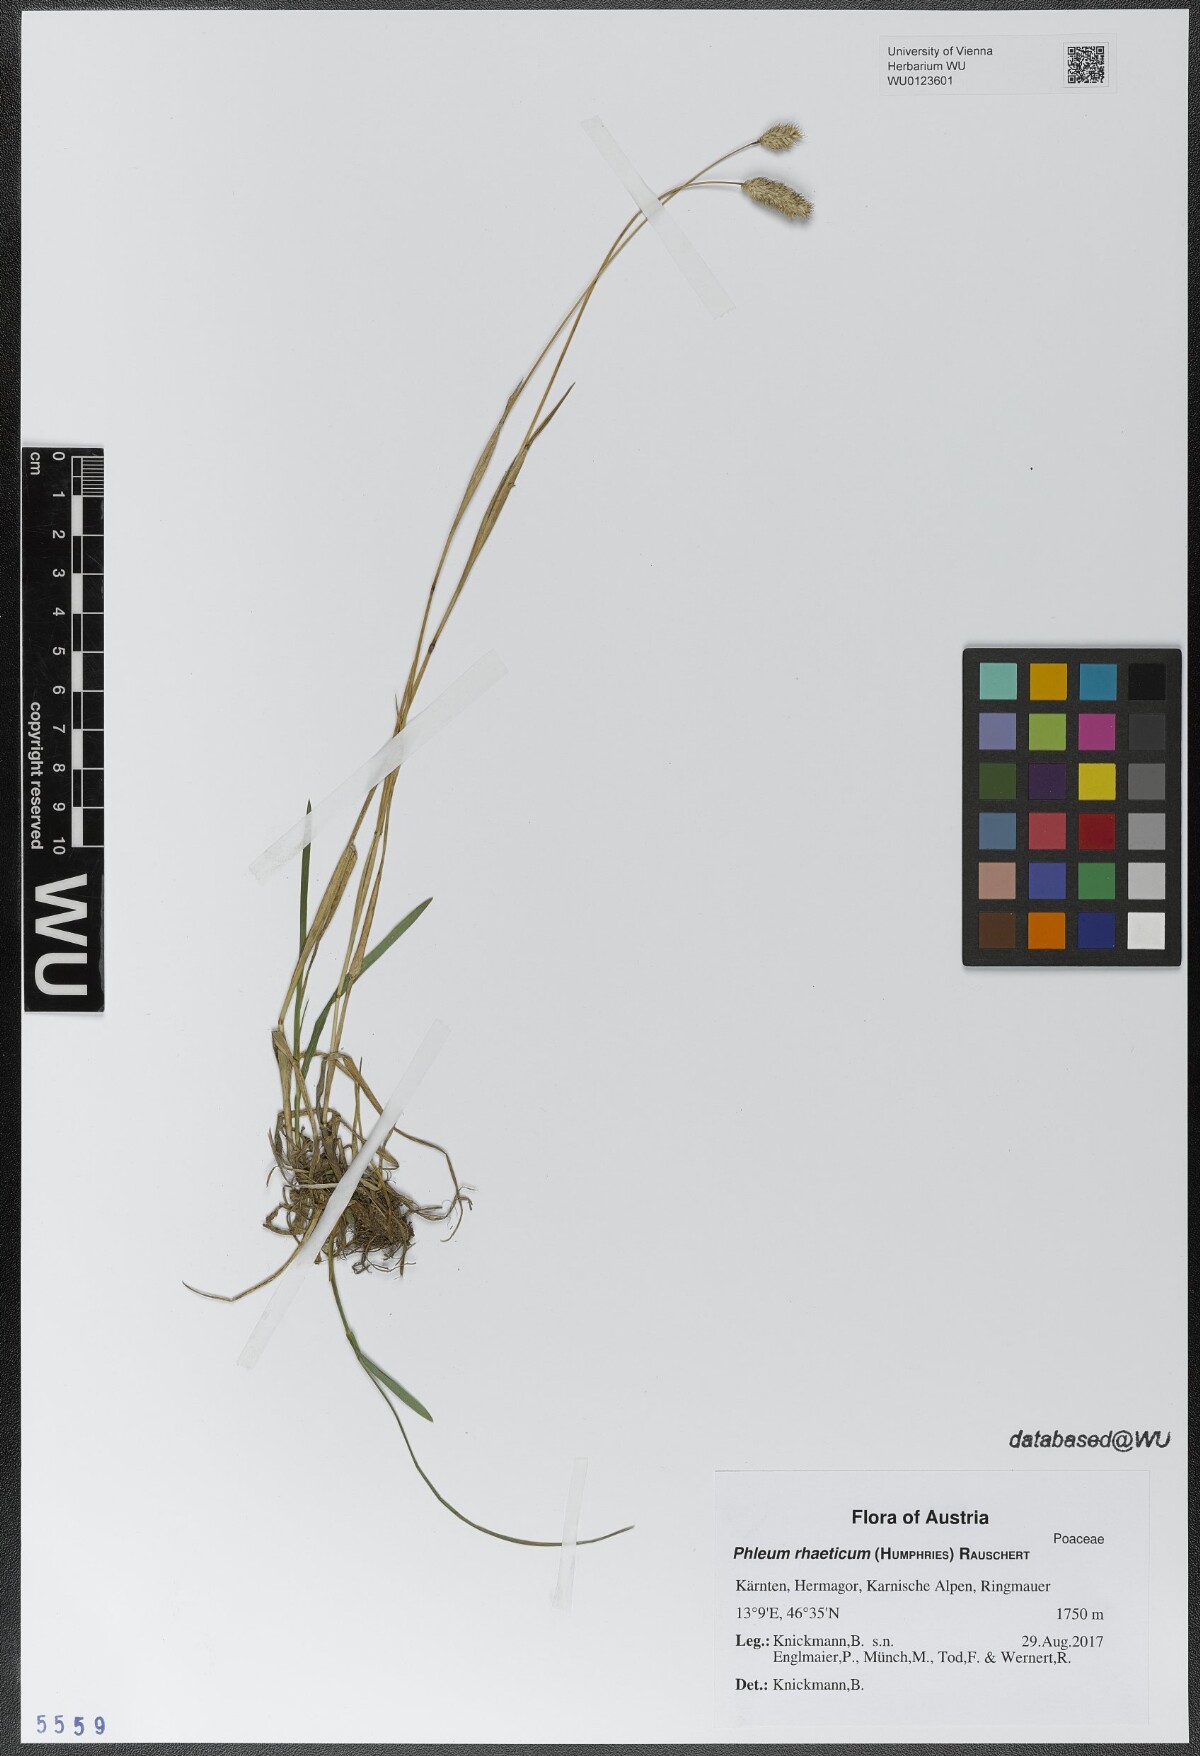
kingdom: Plantae
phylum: Tracheophyta
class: Liliopsida
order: Poales
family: Poaceae
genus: Phleum
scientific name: Phleum alpinum
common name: Alpine cat's-tail
